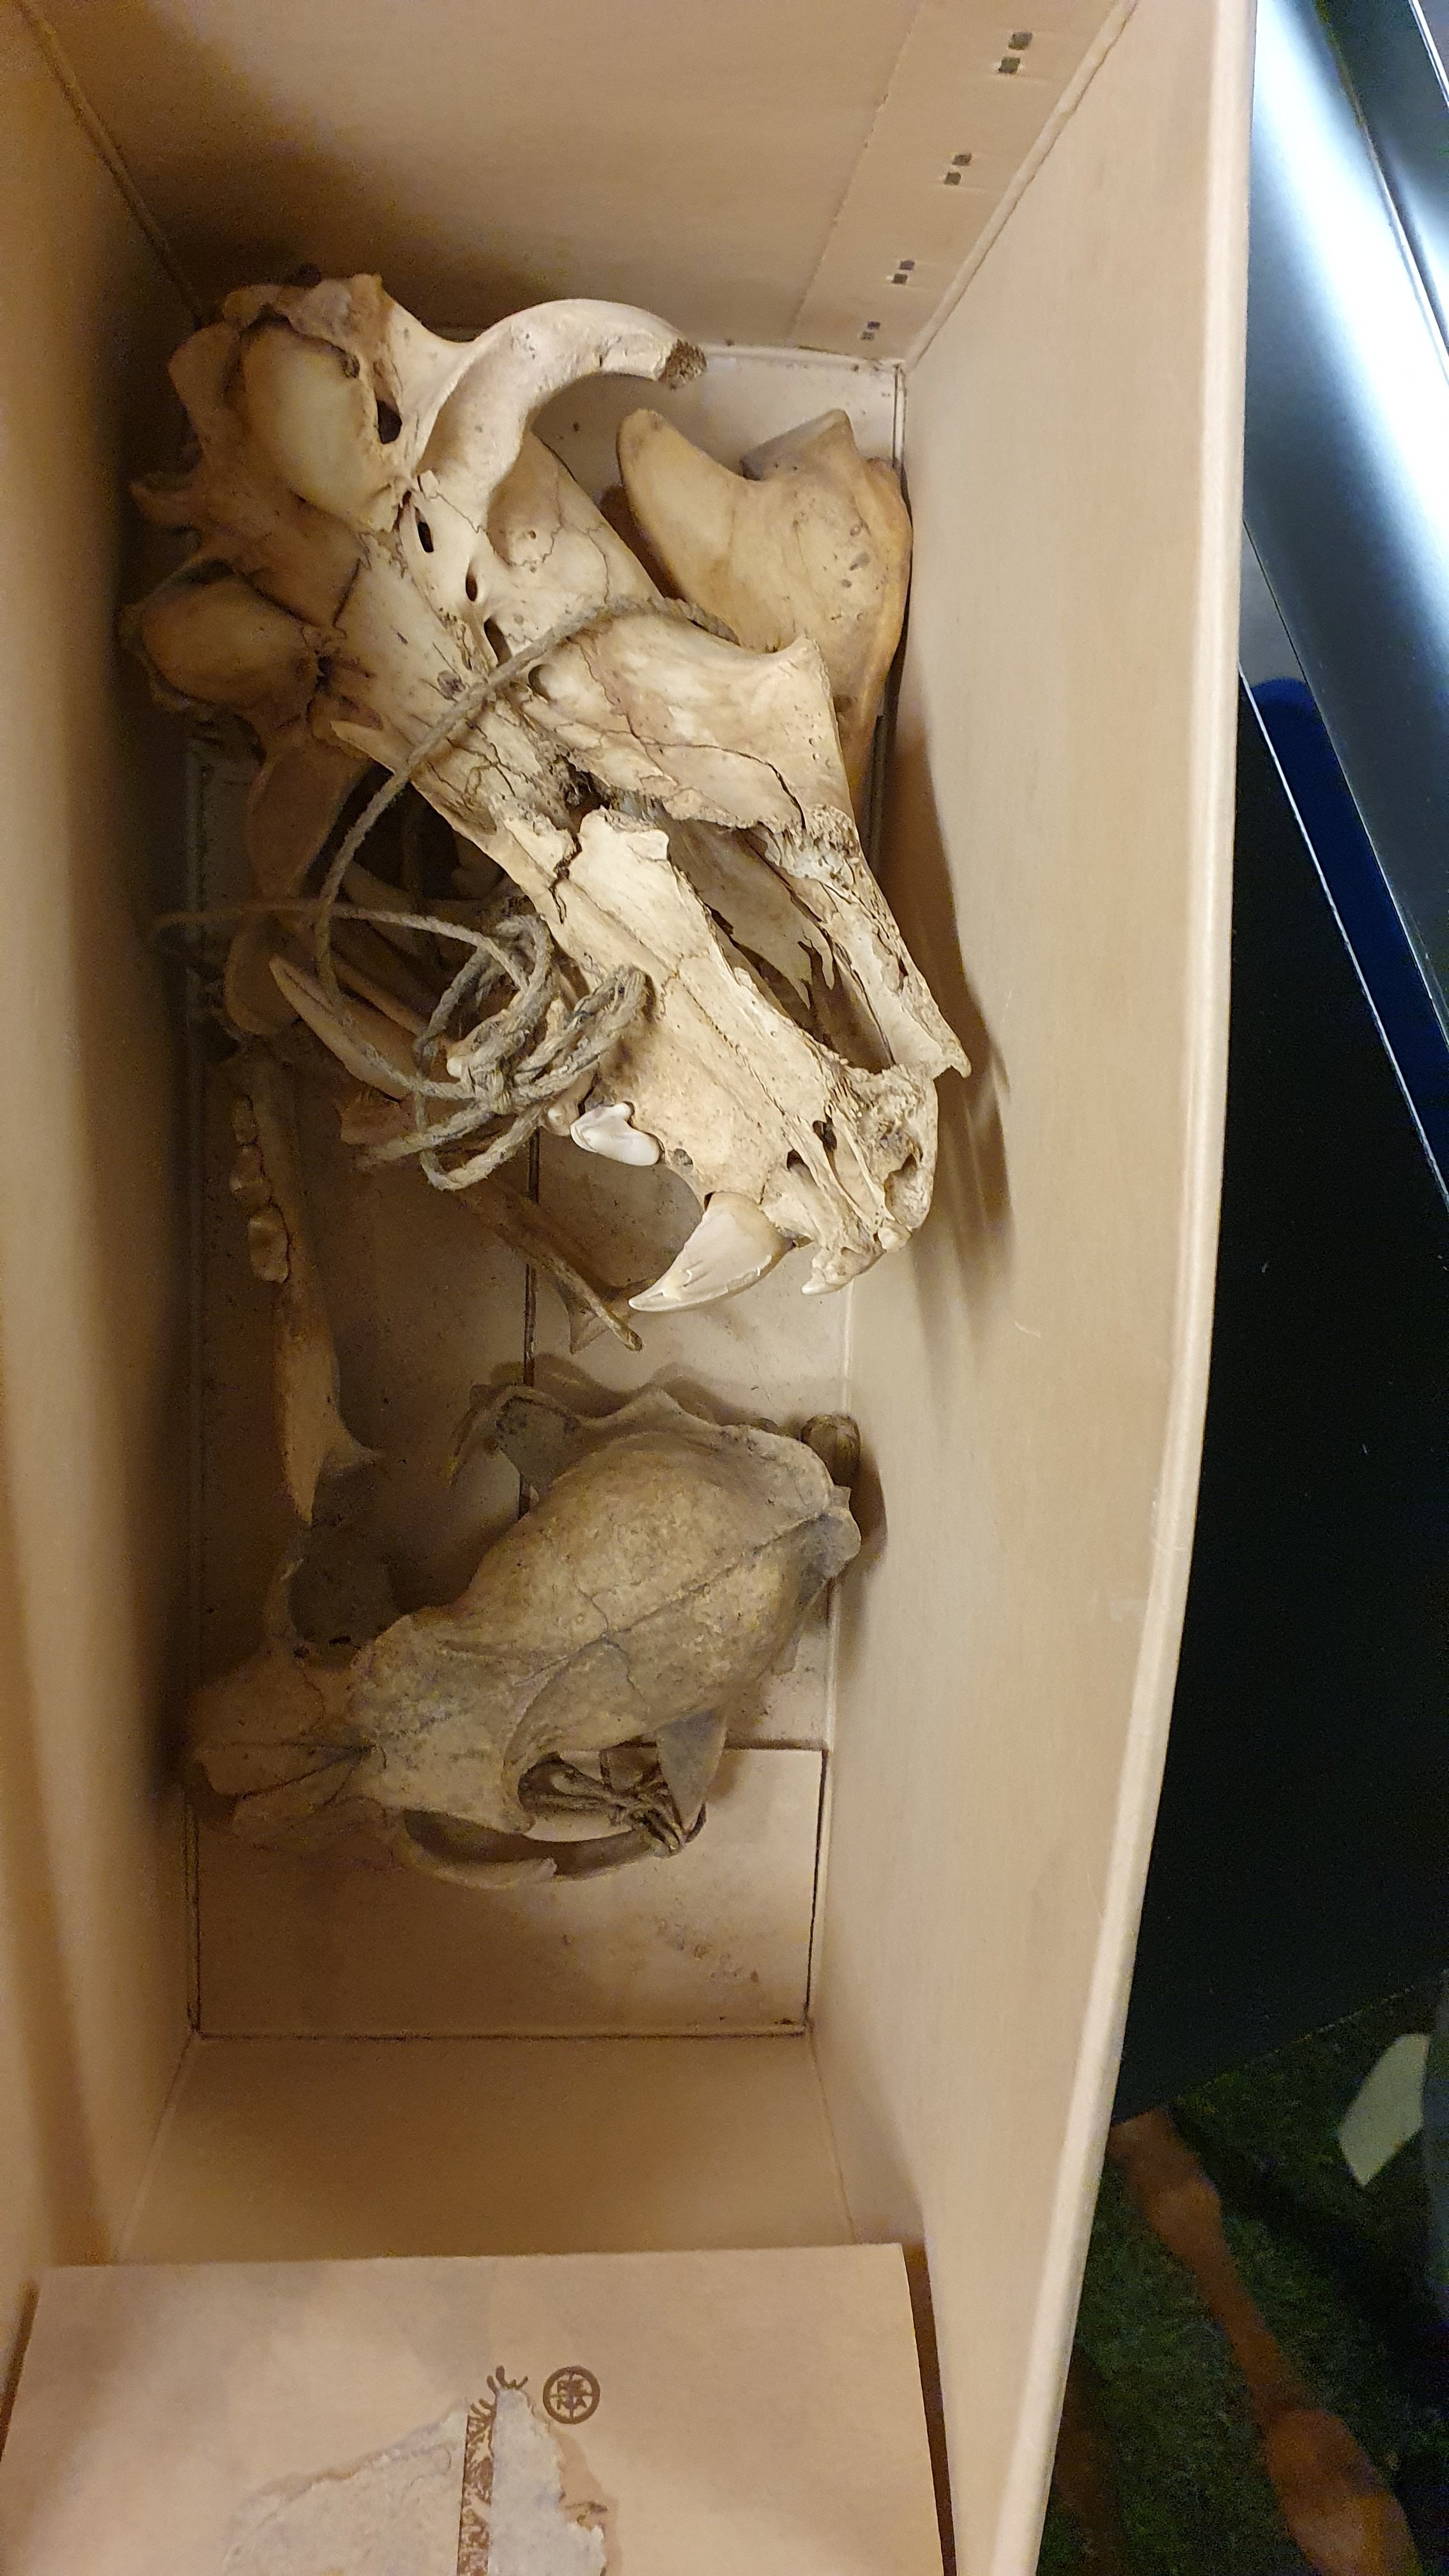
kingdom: Animalia
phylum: Chordata
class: Mammalia
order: Carnivora
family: Felidae
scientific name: Felidae
